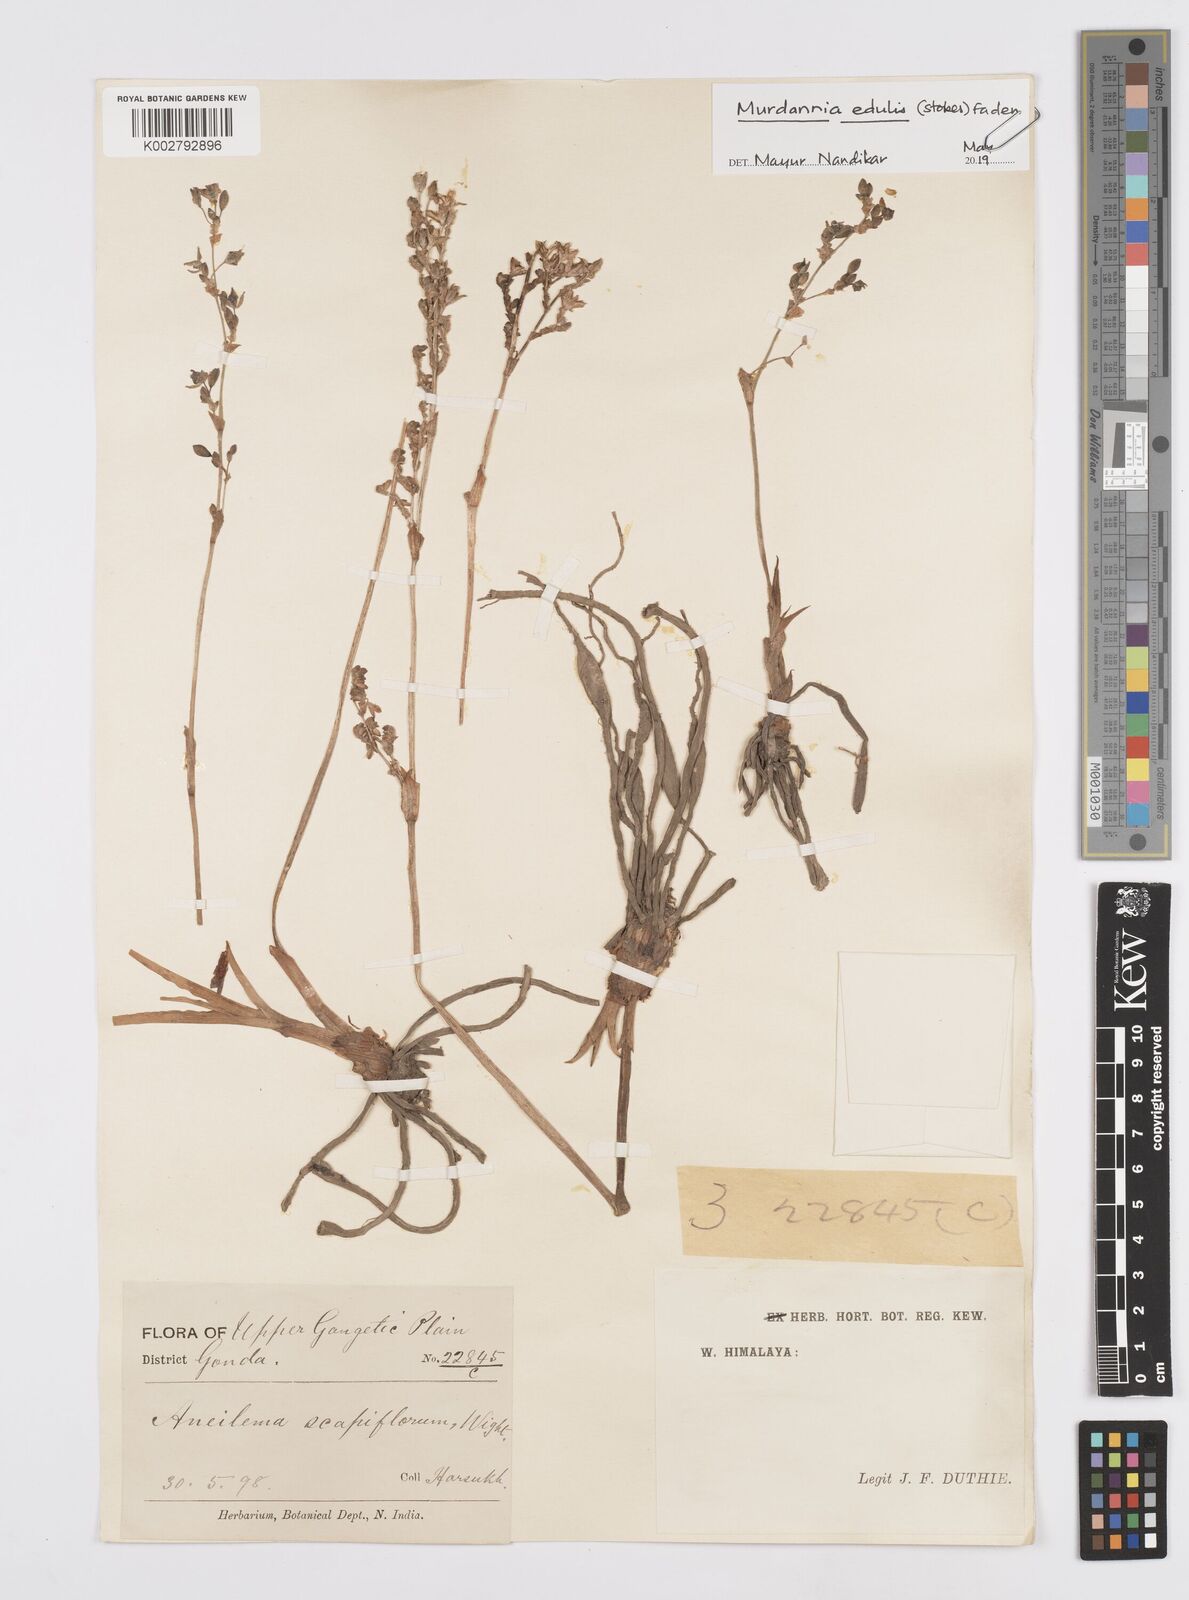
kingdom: Plantae
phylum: Tracheophyta
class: Liliopsida
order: Commelinales
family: Commelinaceae
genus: Murdannia
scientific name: Murdannia edulis
